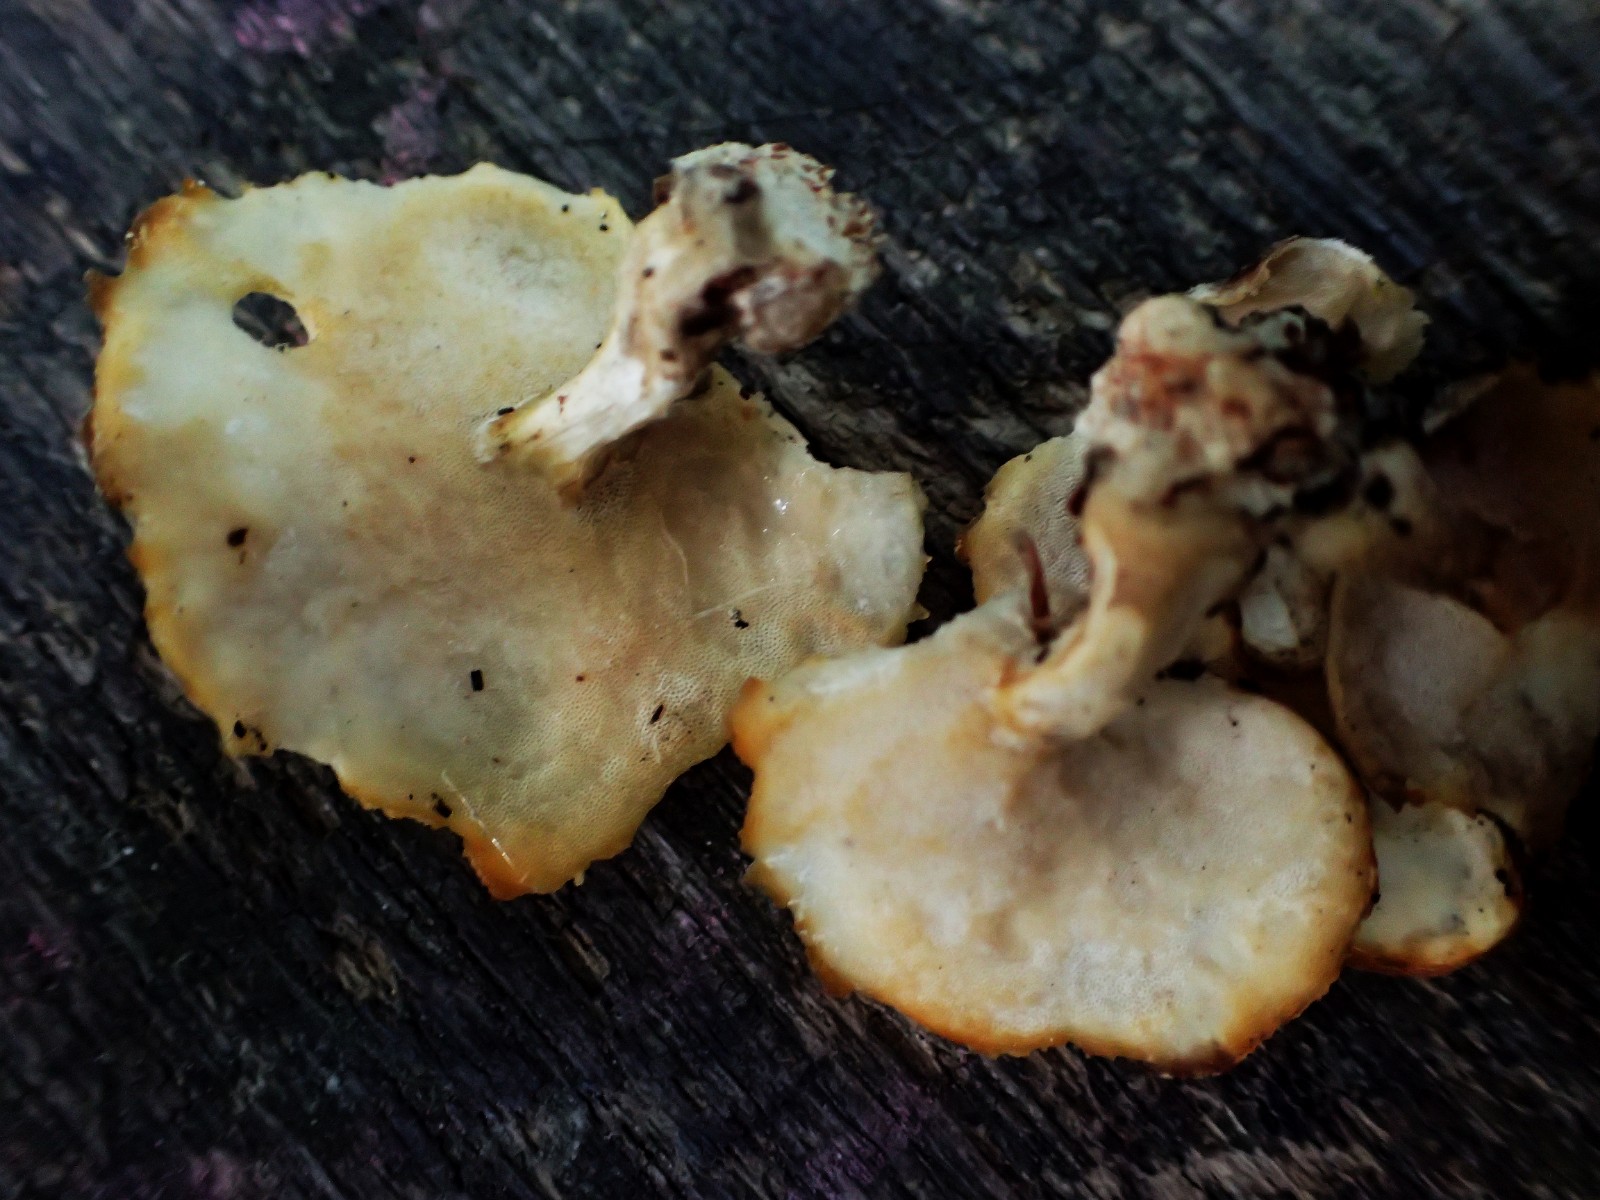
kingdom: Fungi
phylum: Basidiomycota
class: Agaricomycetes
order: Polyporales
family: Polyporaceae
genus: Lentinus
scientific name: Lentinus substrictus
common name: forårs-stilkporesvamp
